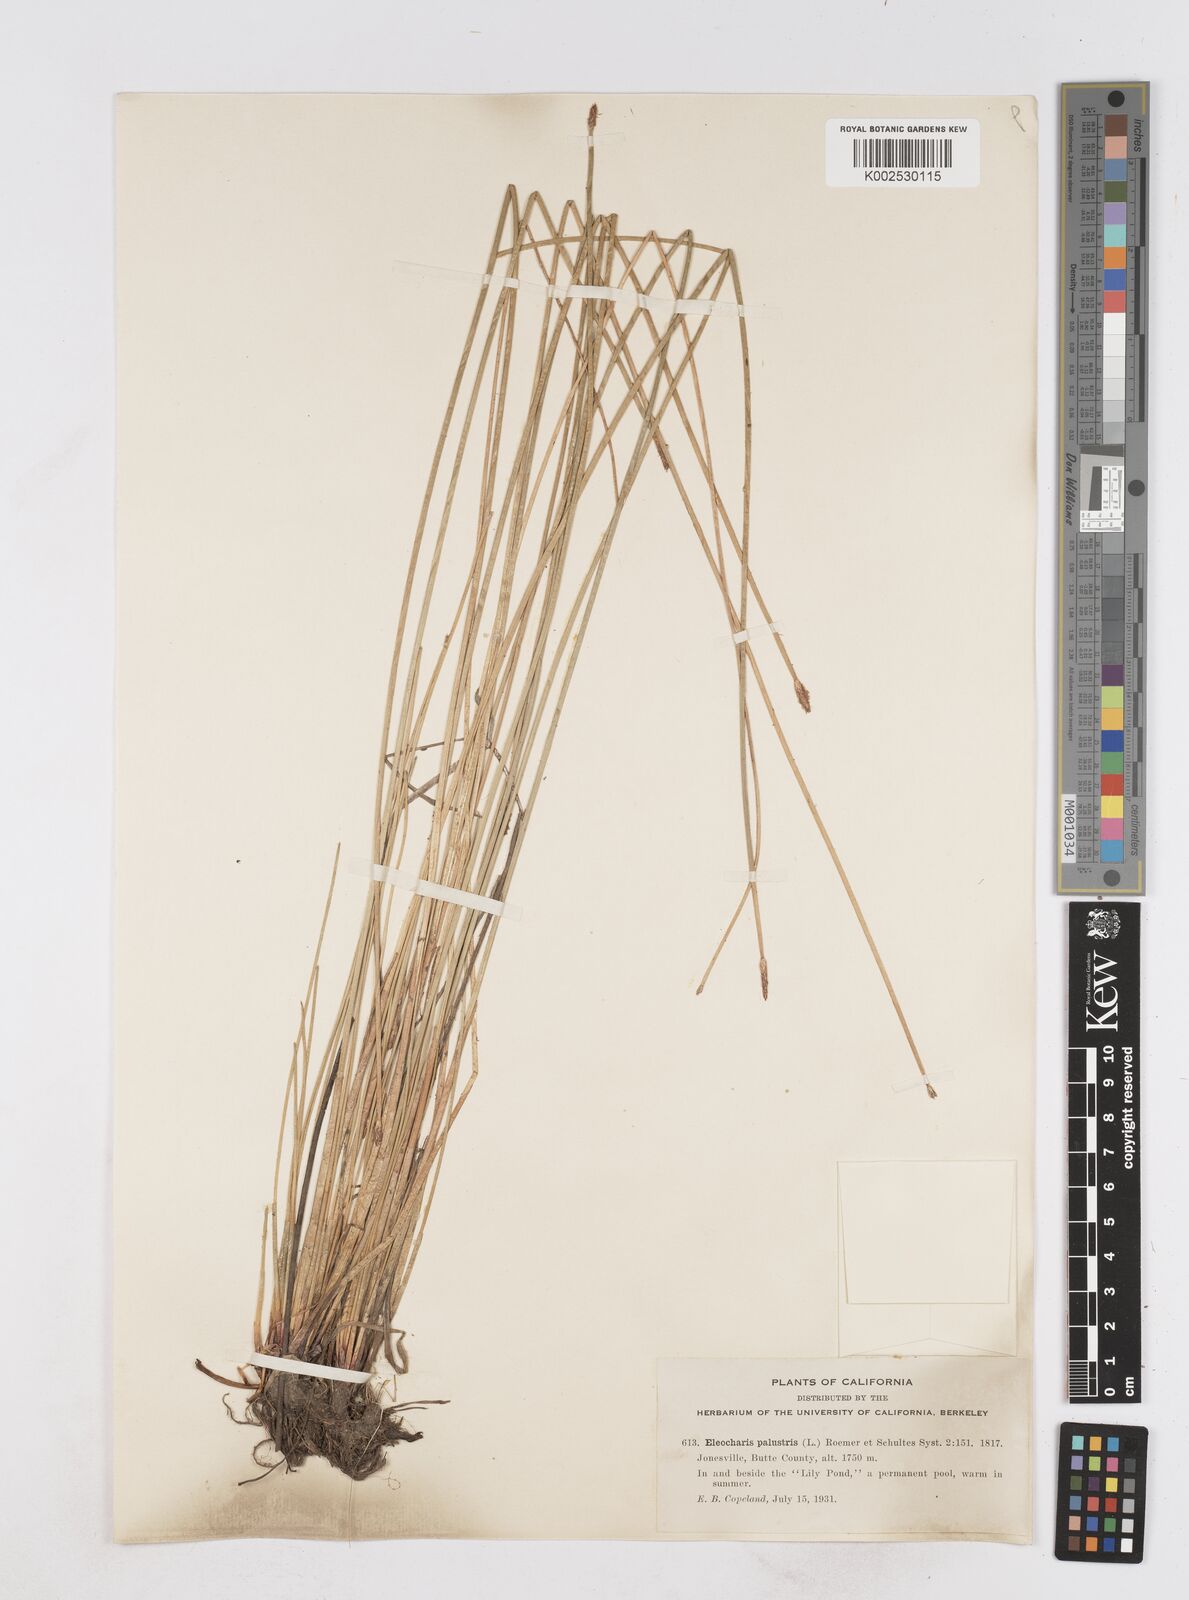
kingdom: Plantae
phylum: Tracheophyta
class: Liliopsida
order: Poales
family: Cyperaceae
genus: Eleocharis
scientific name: Eleocharis erythropoda
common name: Bald spikerush
